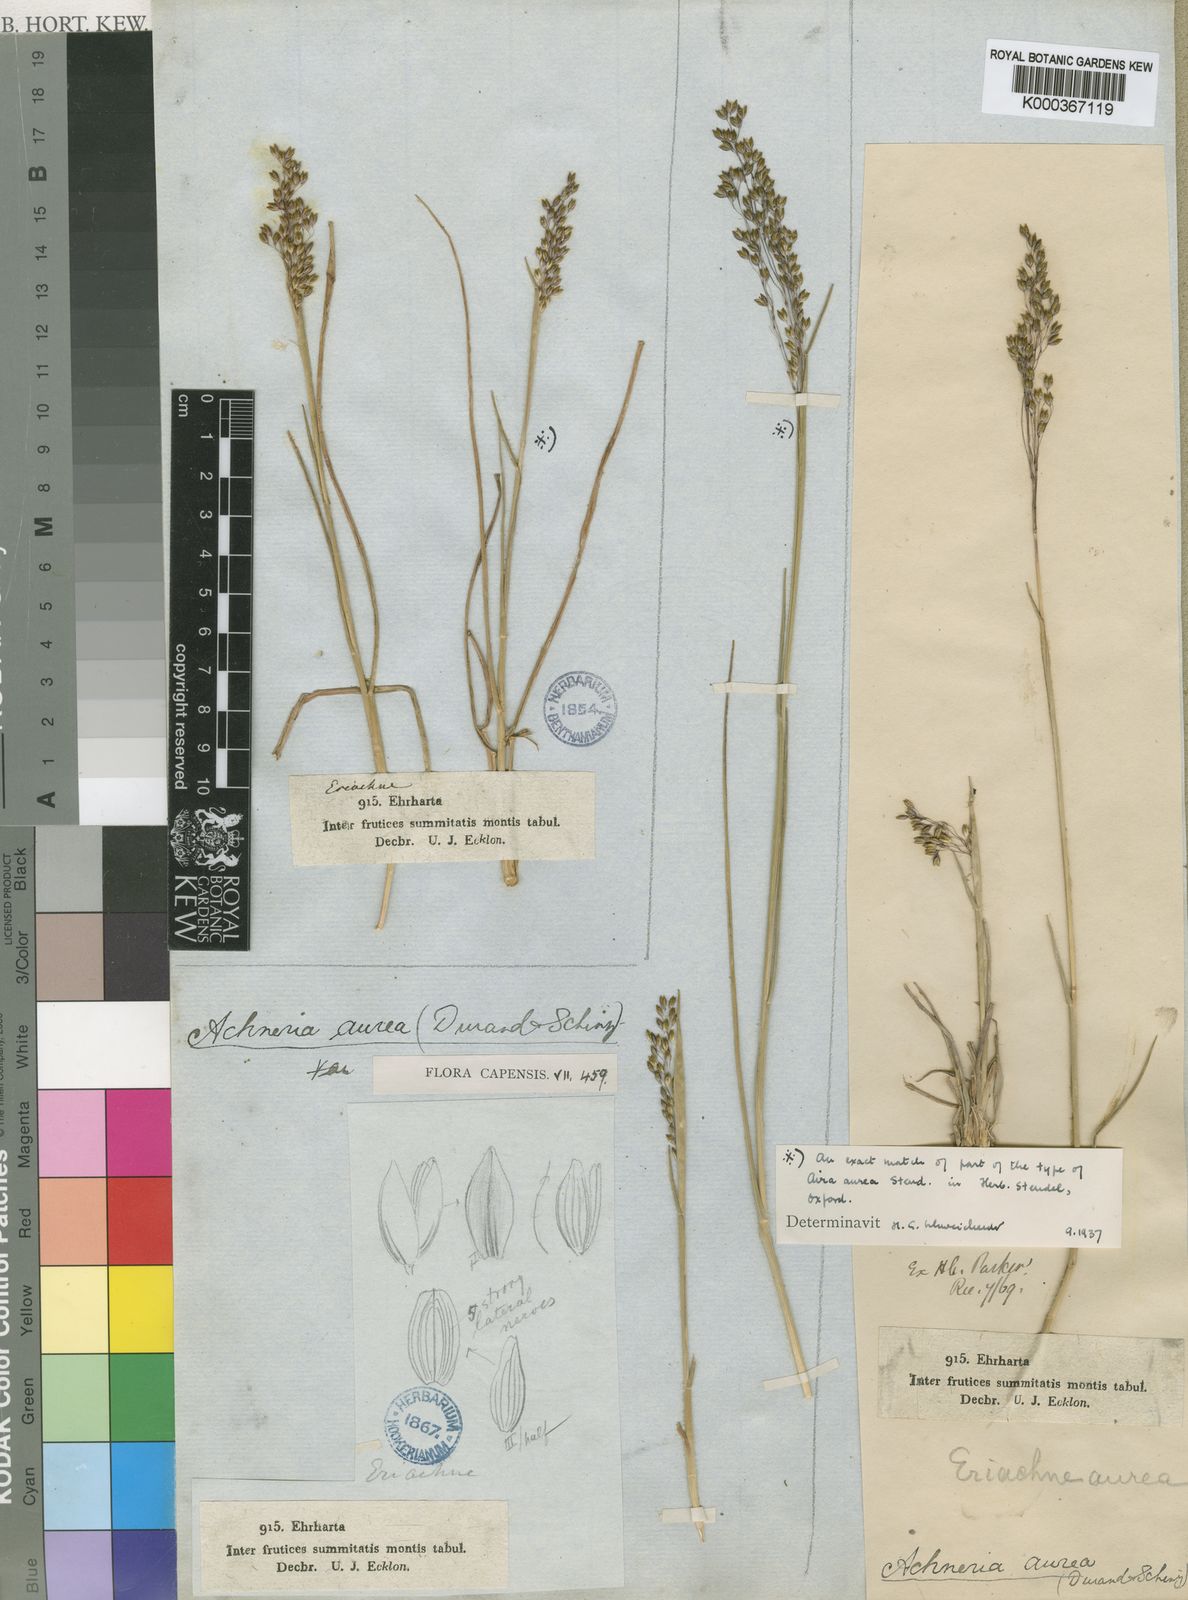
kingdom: Plantae
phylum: Tracheophyta
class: Liliopsida
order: Poales
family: Poaceae
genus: Pentameris
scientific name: Pentameris aurea
